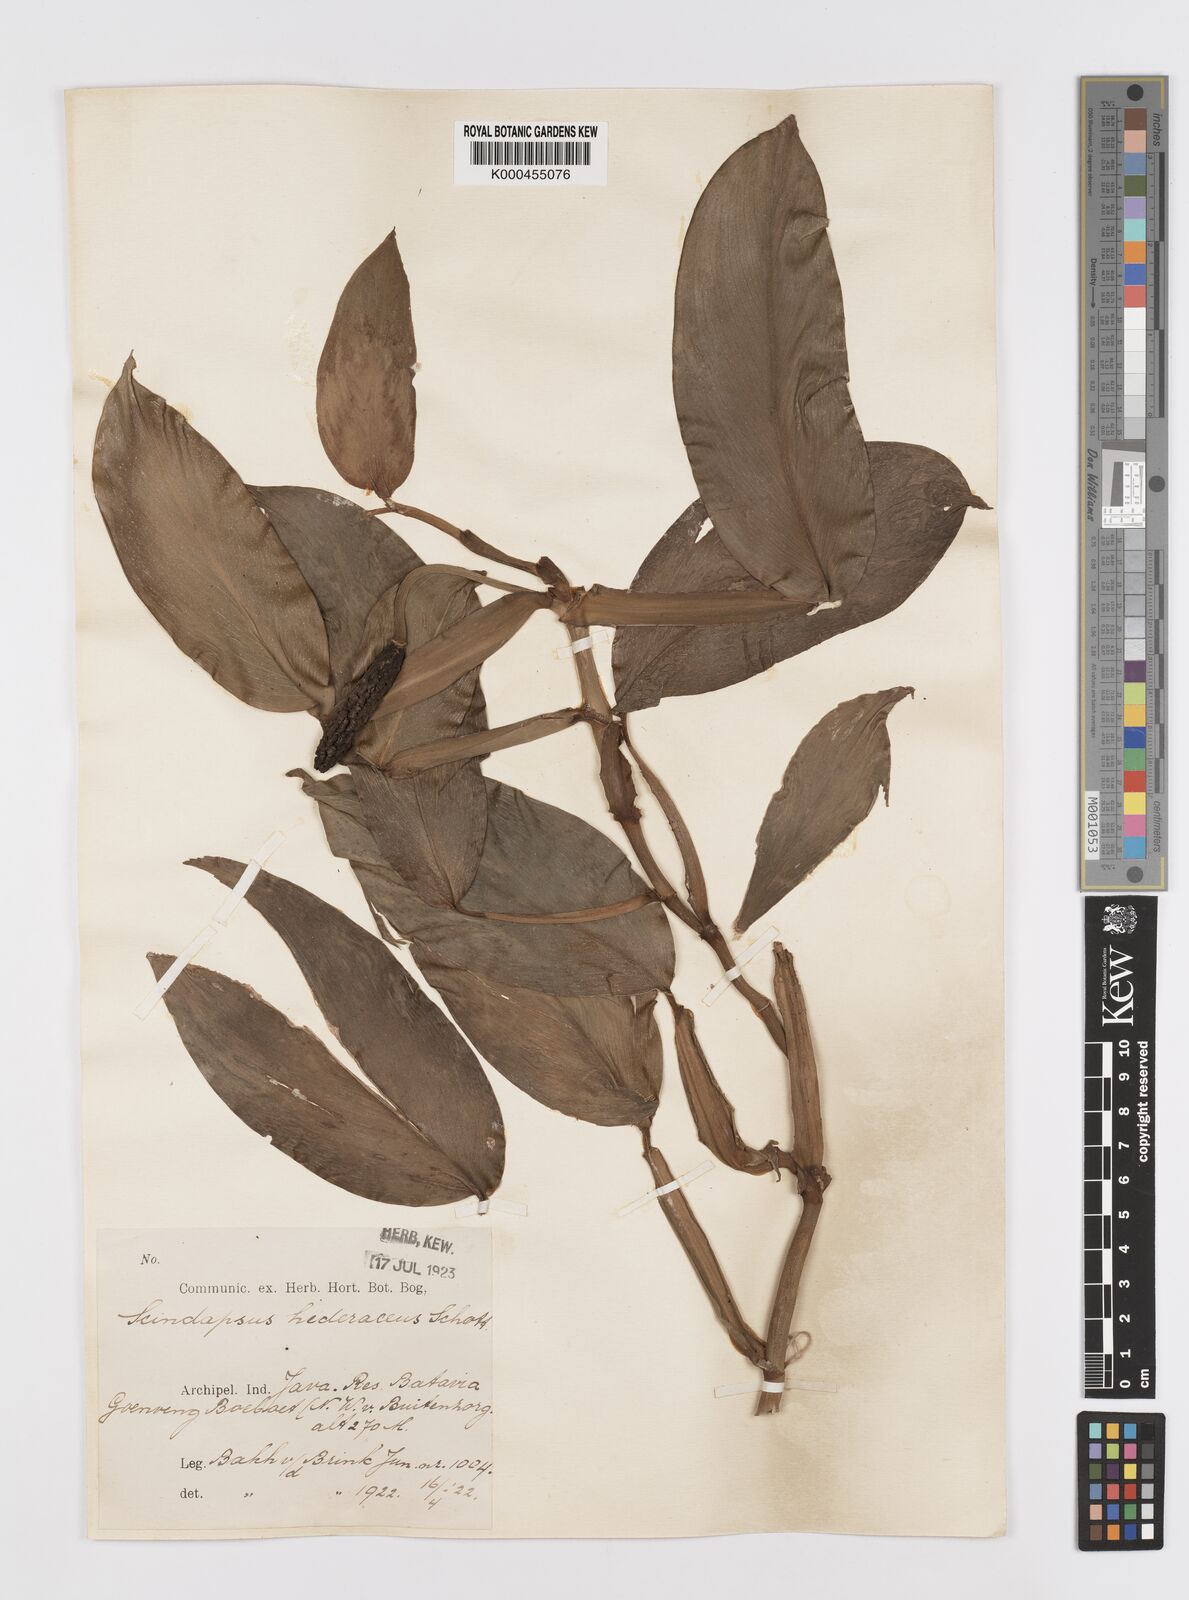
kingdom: Plantae
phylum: Tracheophyta
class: Liliopsida
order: Alismatales
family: Araceae
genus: Scindapsus
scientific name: Scindapsus hederaceus
